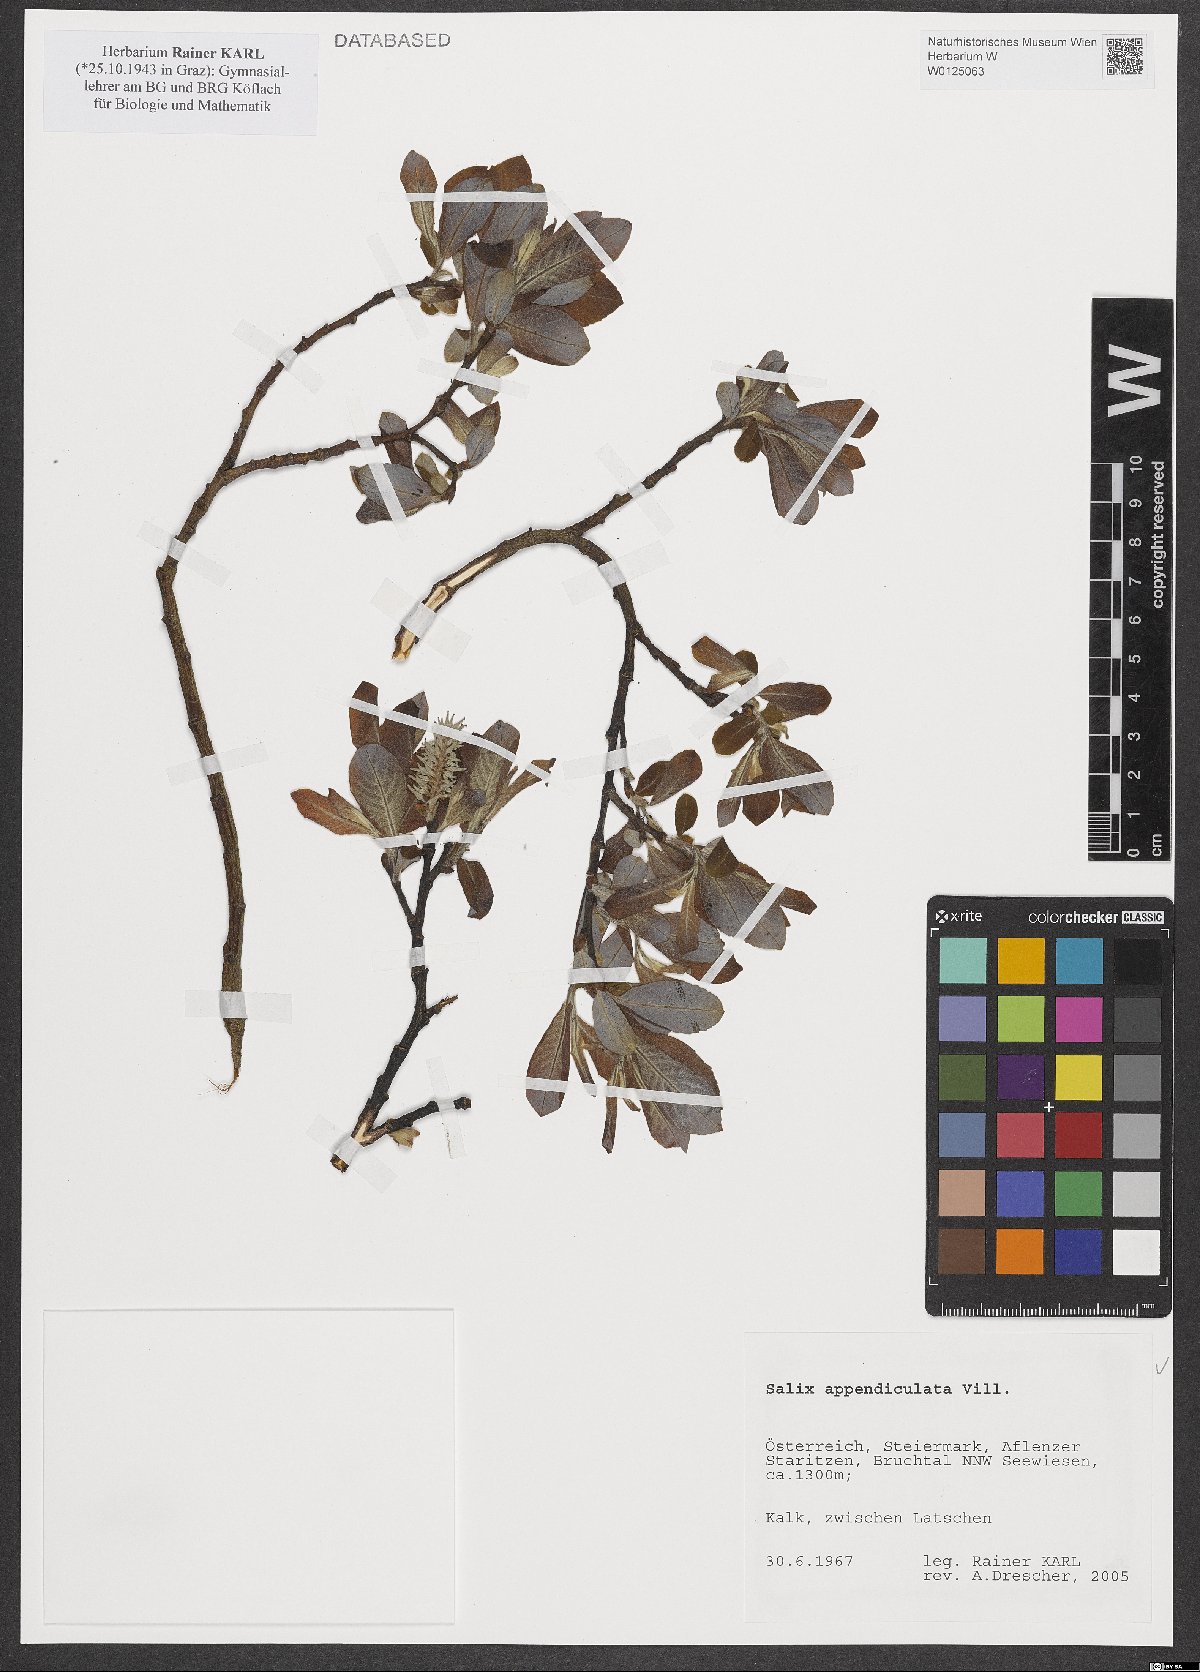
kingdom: Plantae
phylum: Tracheophyta
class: Magnoliopsida
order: Malpighiales
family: Salicaceae
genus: Salix
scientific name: Salix appendiculata
